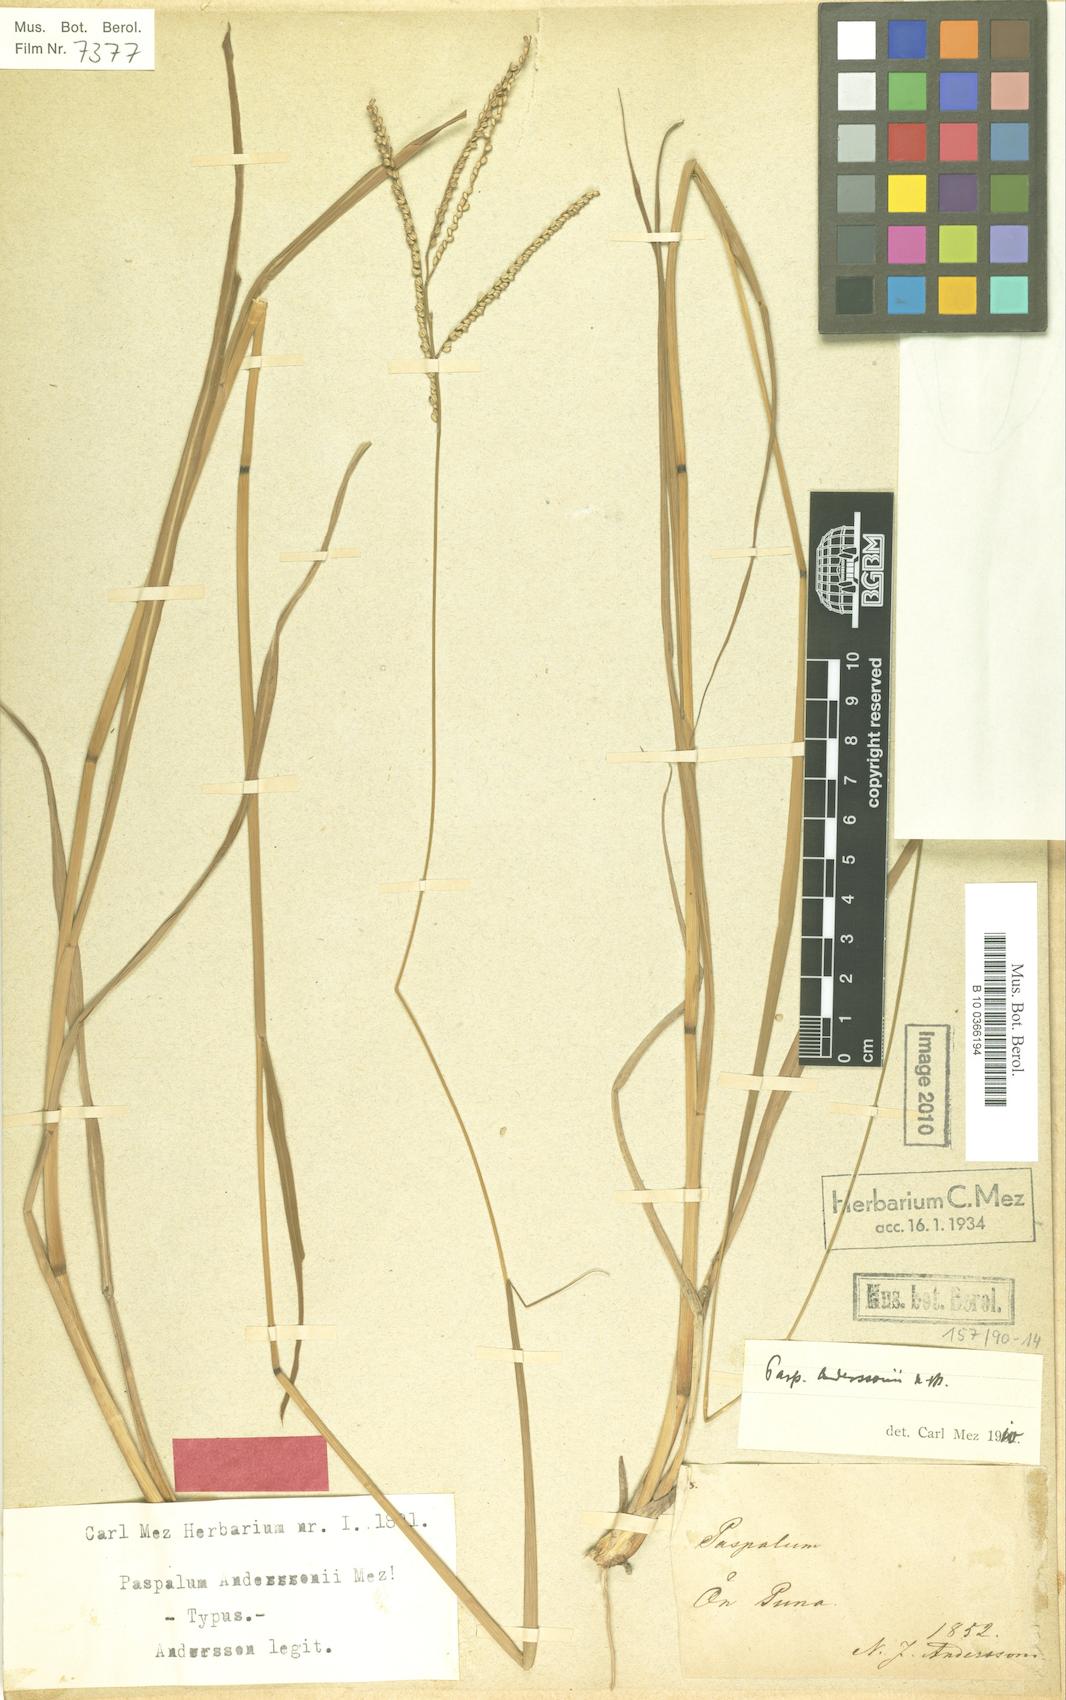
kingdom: Plantae
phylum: Tracheophyta
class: Liliopsida
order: Poales
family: Poaceae
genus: Paspalum
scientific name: Paspalum anderssonii
